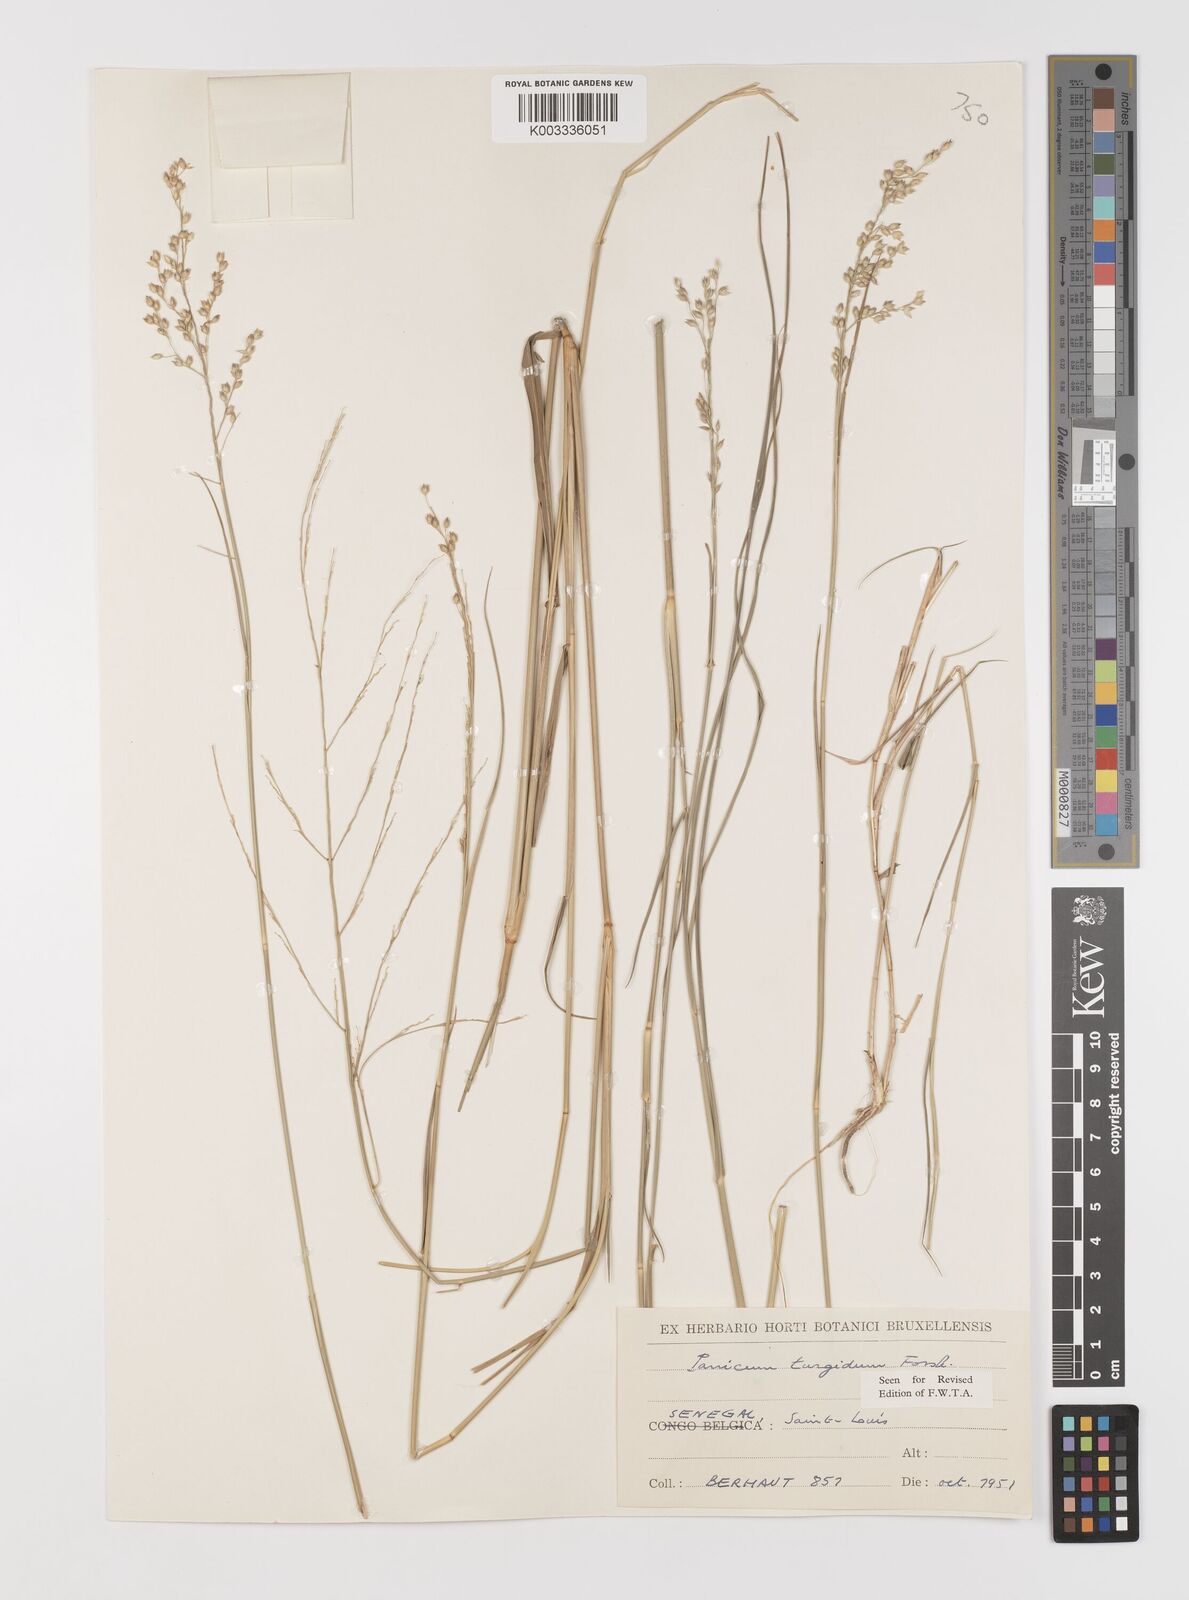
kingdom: Plantae
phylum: Tracheophyta
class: Liliopsida
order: Poales
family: Poaceae
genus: Panicum
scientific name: Panicum turgidum
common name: Desert grass
